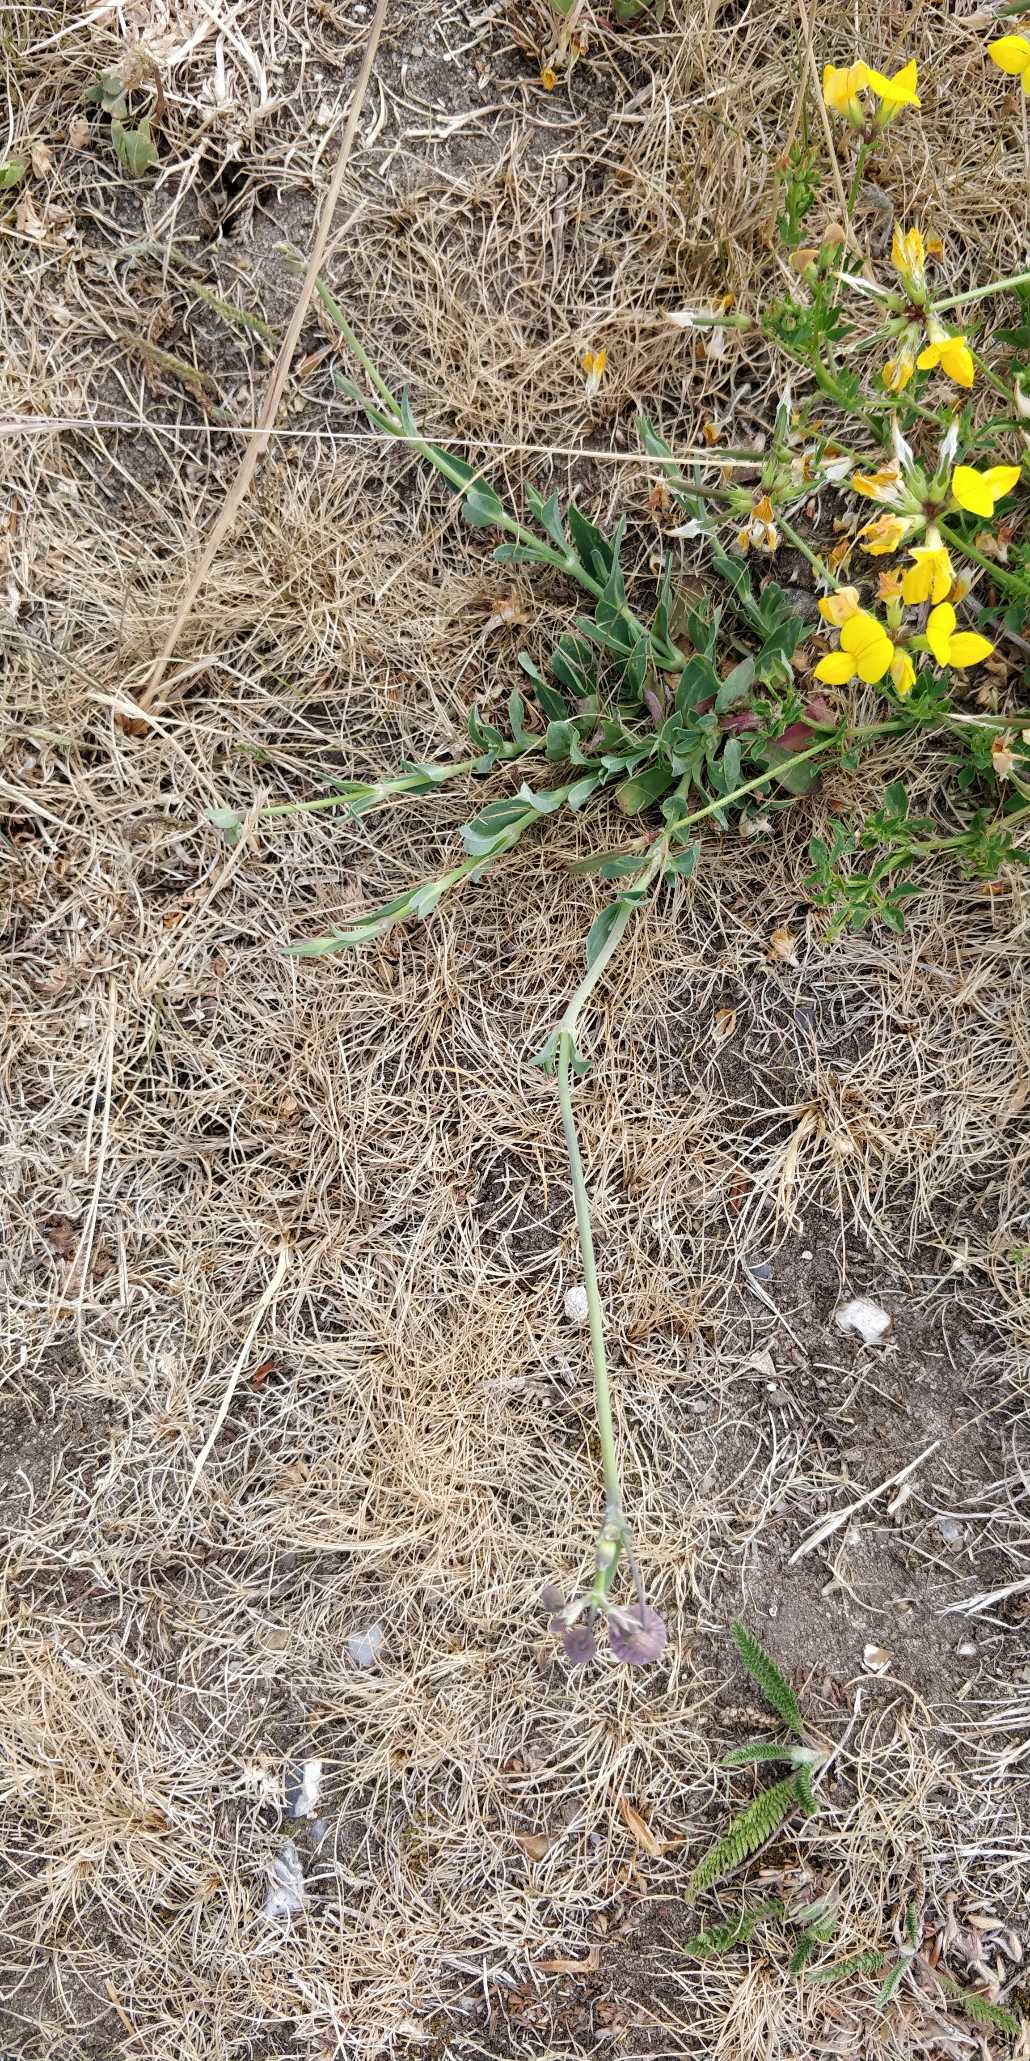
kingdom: Plantae
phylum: Tracheophyta
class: Magnoliopsida
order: Caryophyllales
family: Caryophyllaceae
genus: Silene
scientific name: Silene vulgaris
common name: Blæresmælde
